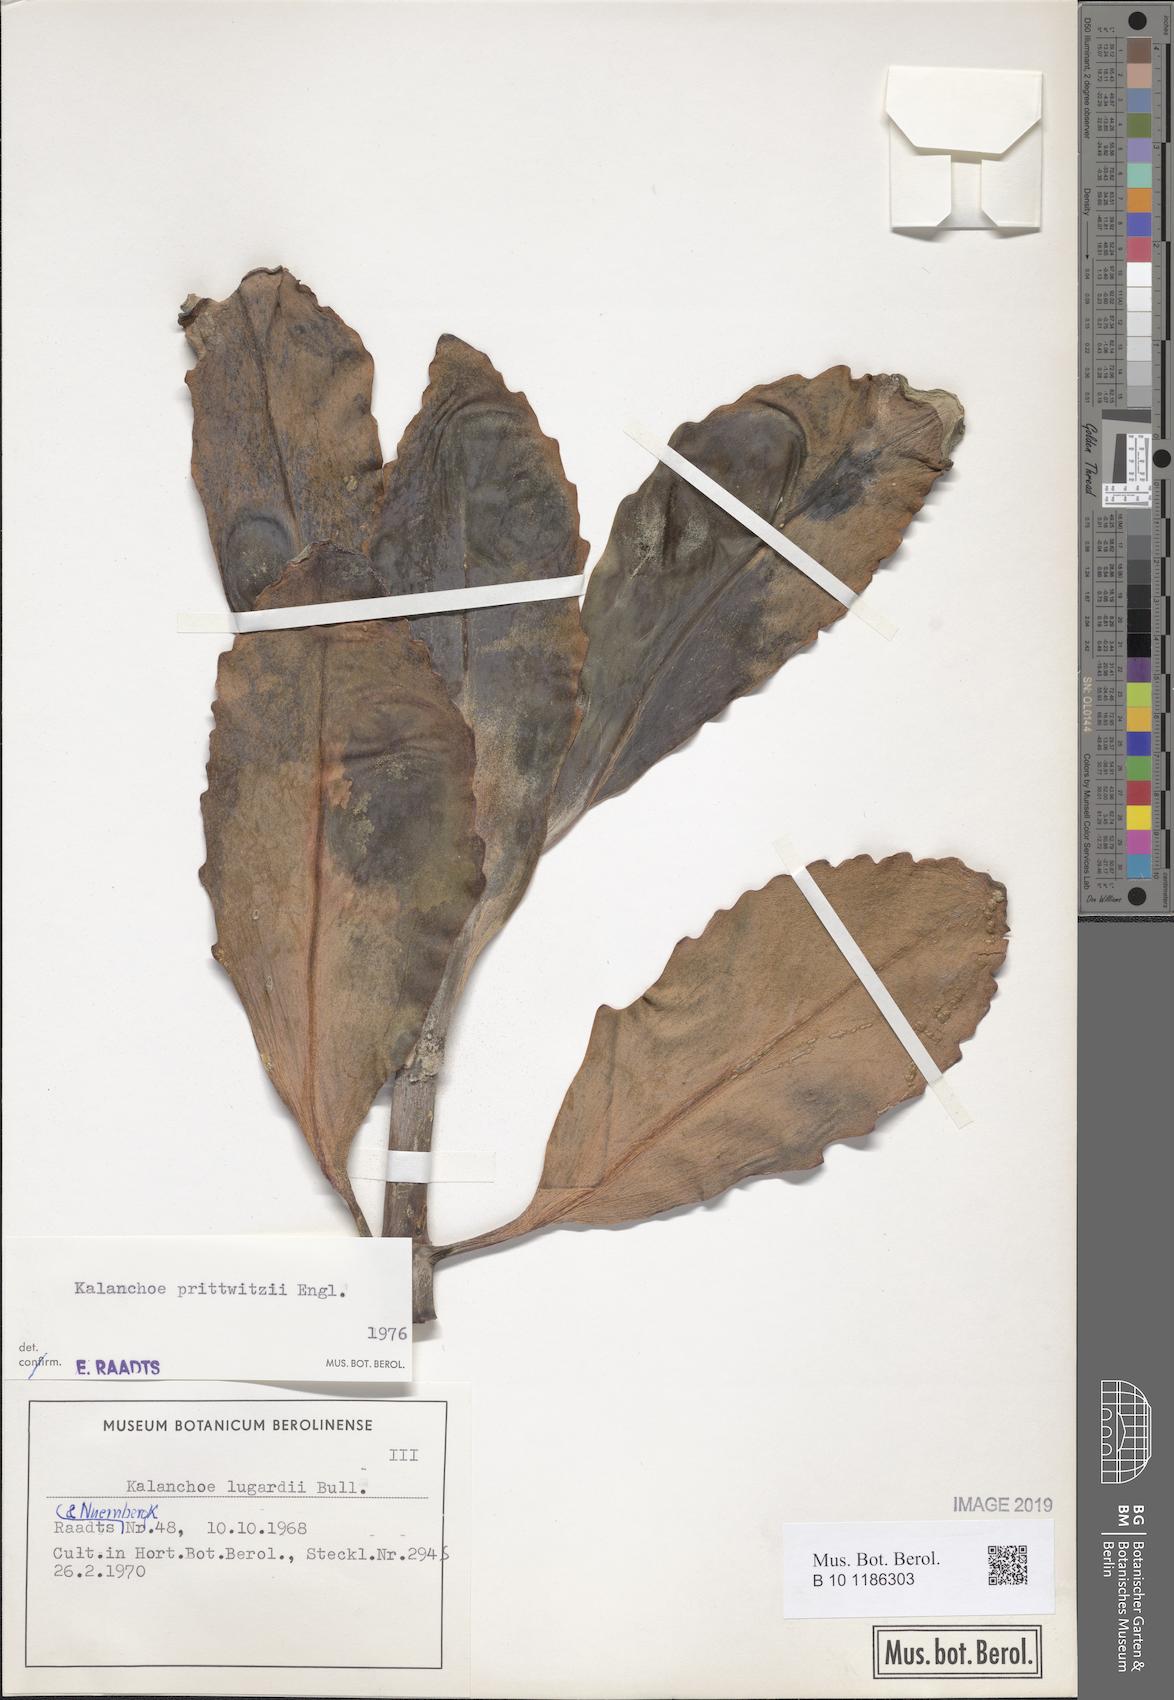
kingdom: Plantae
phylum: Tracheophyta
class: Magnoliopsida
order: Saxifragales
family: Crassulaceae
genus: Kalanchoe
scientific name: Kalanchoe prittwitzii
